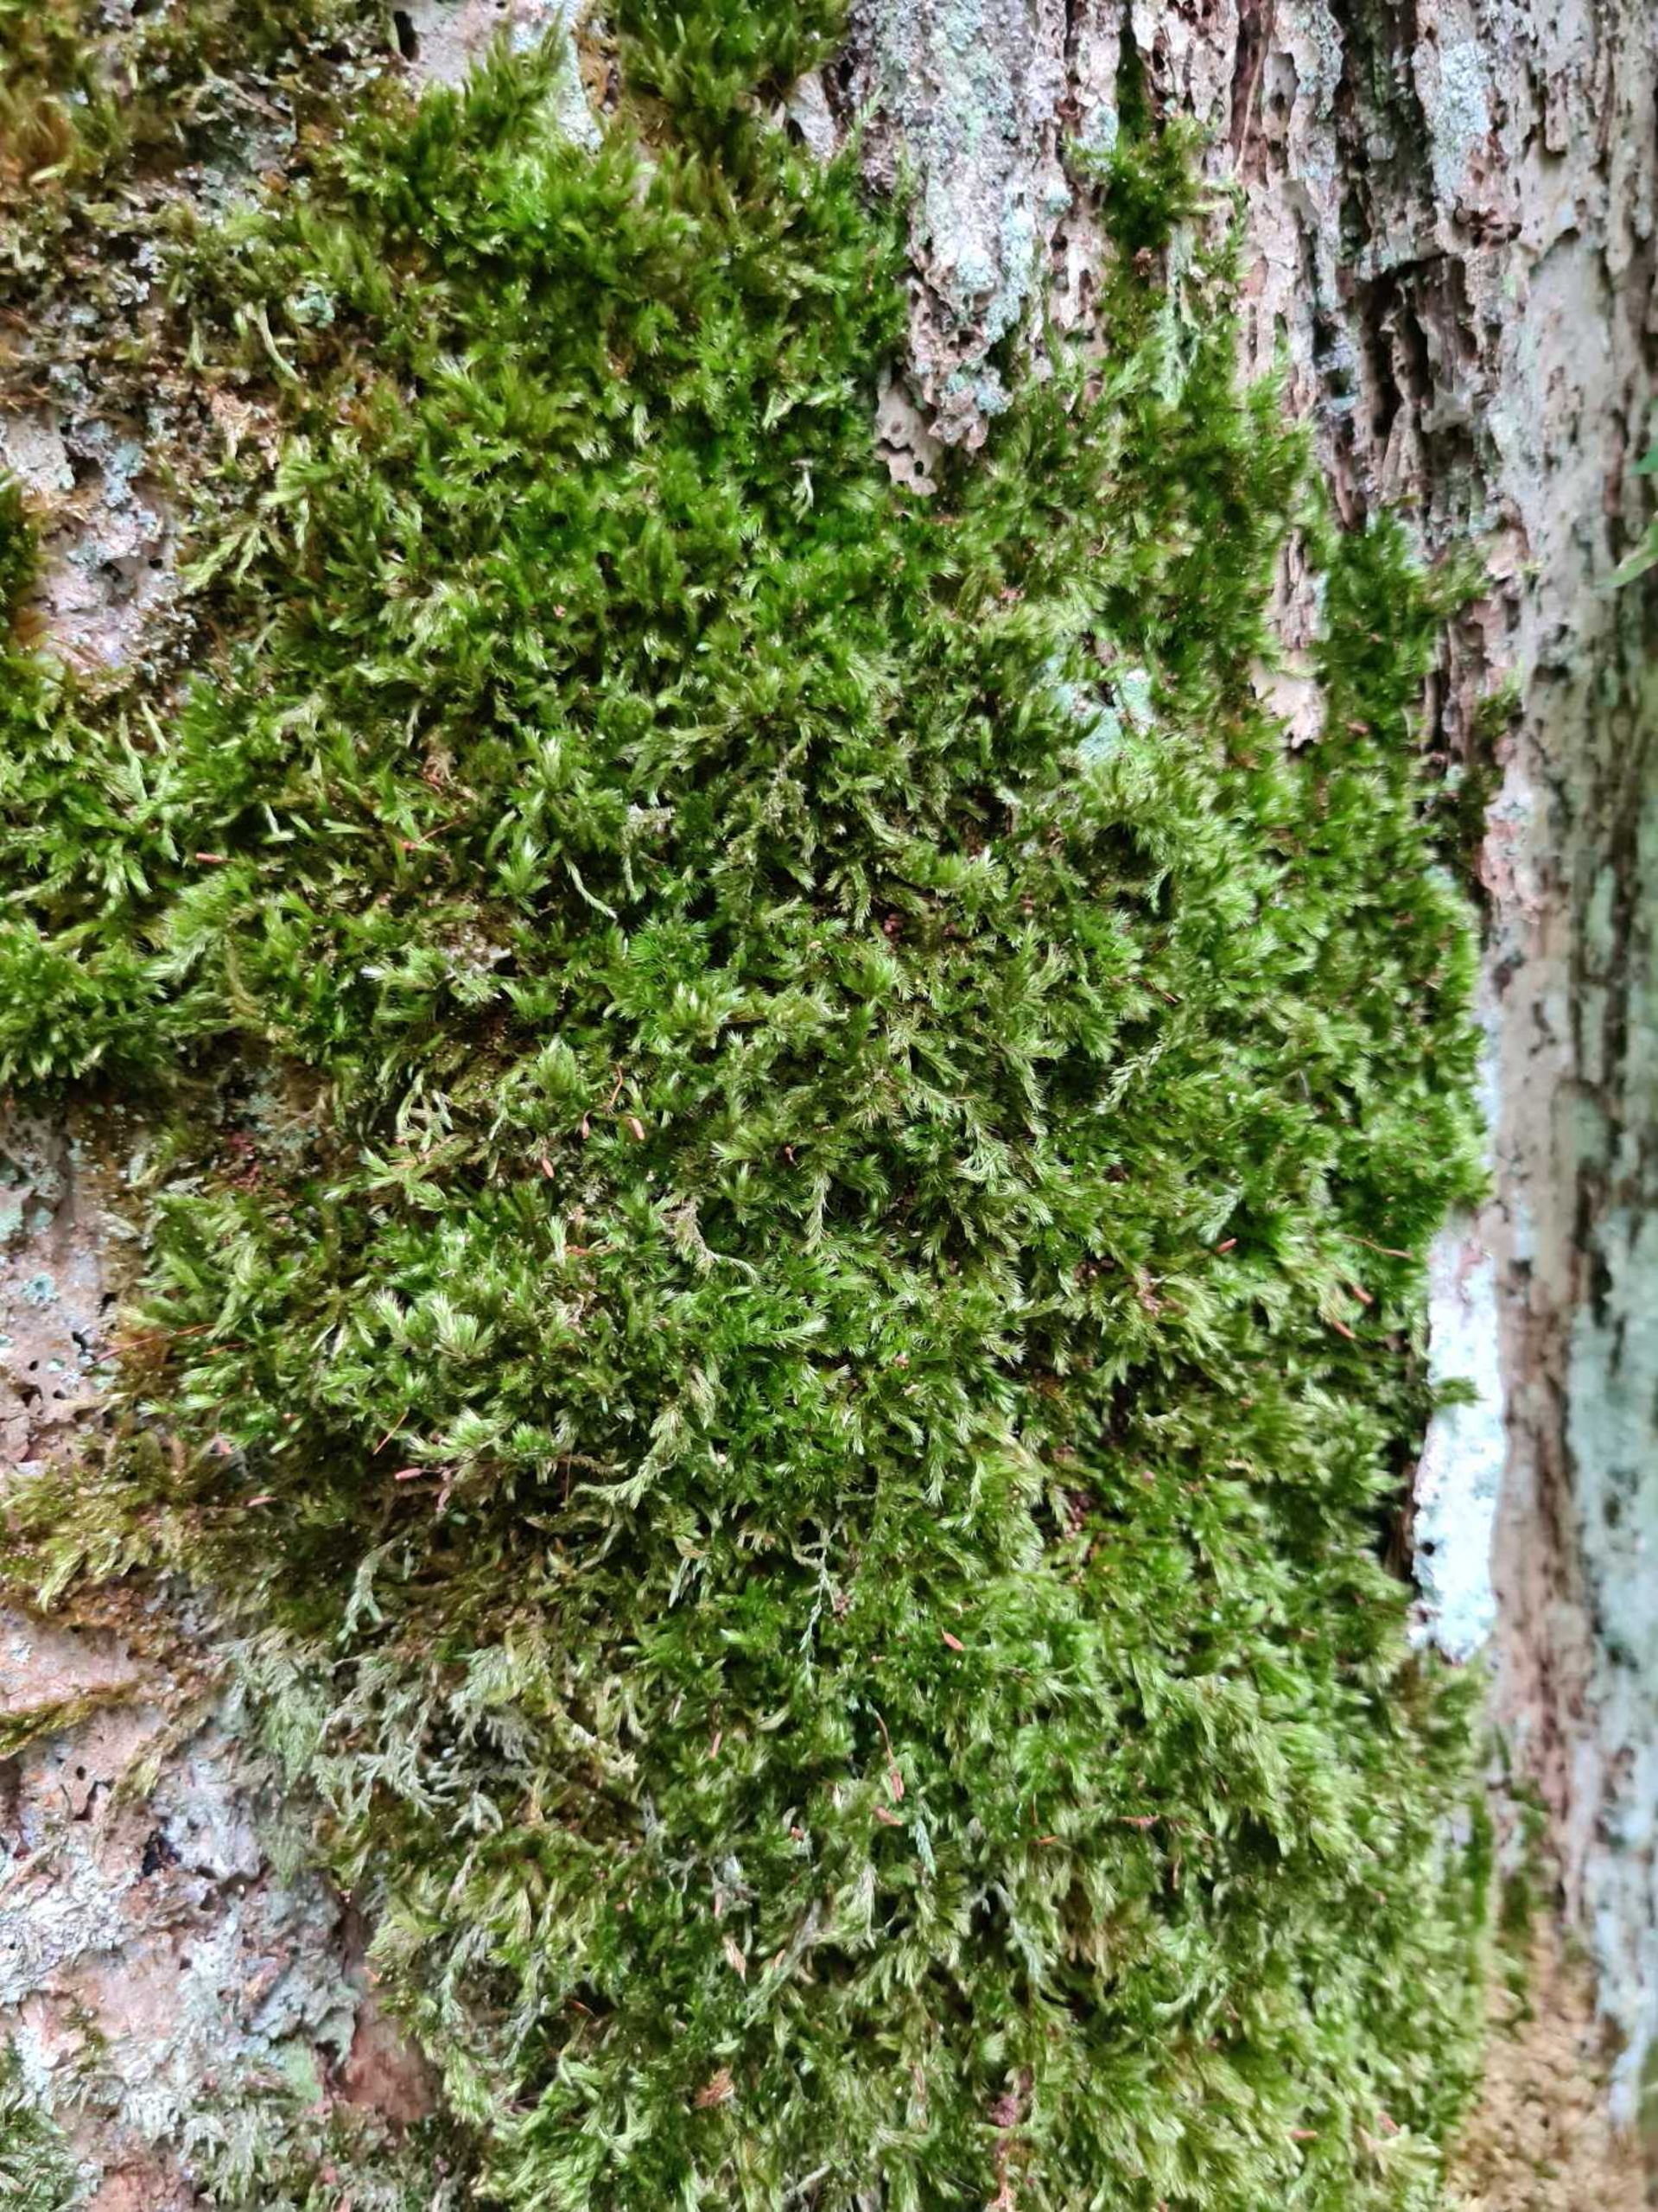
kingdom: Plantae
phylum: Bryophyta
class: Bryopsida
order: Hypnales
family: Brachytheciaceae
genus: Homalothecium
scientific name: Homalothecium sericeum
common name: Krybende silkemos
